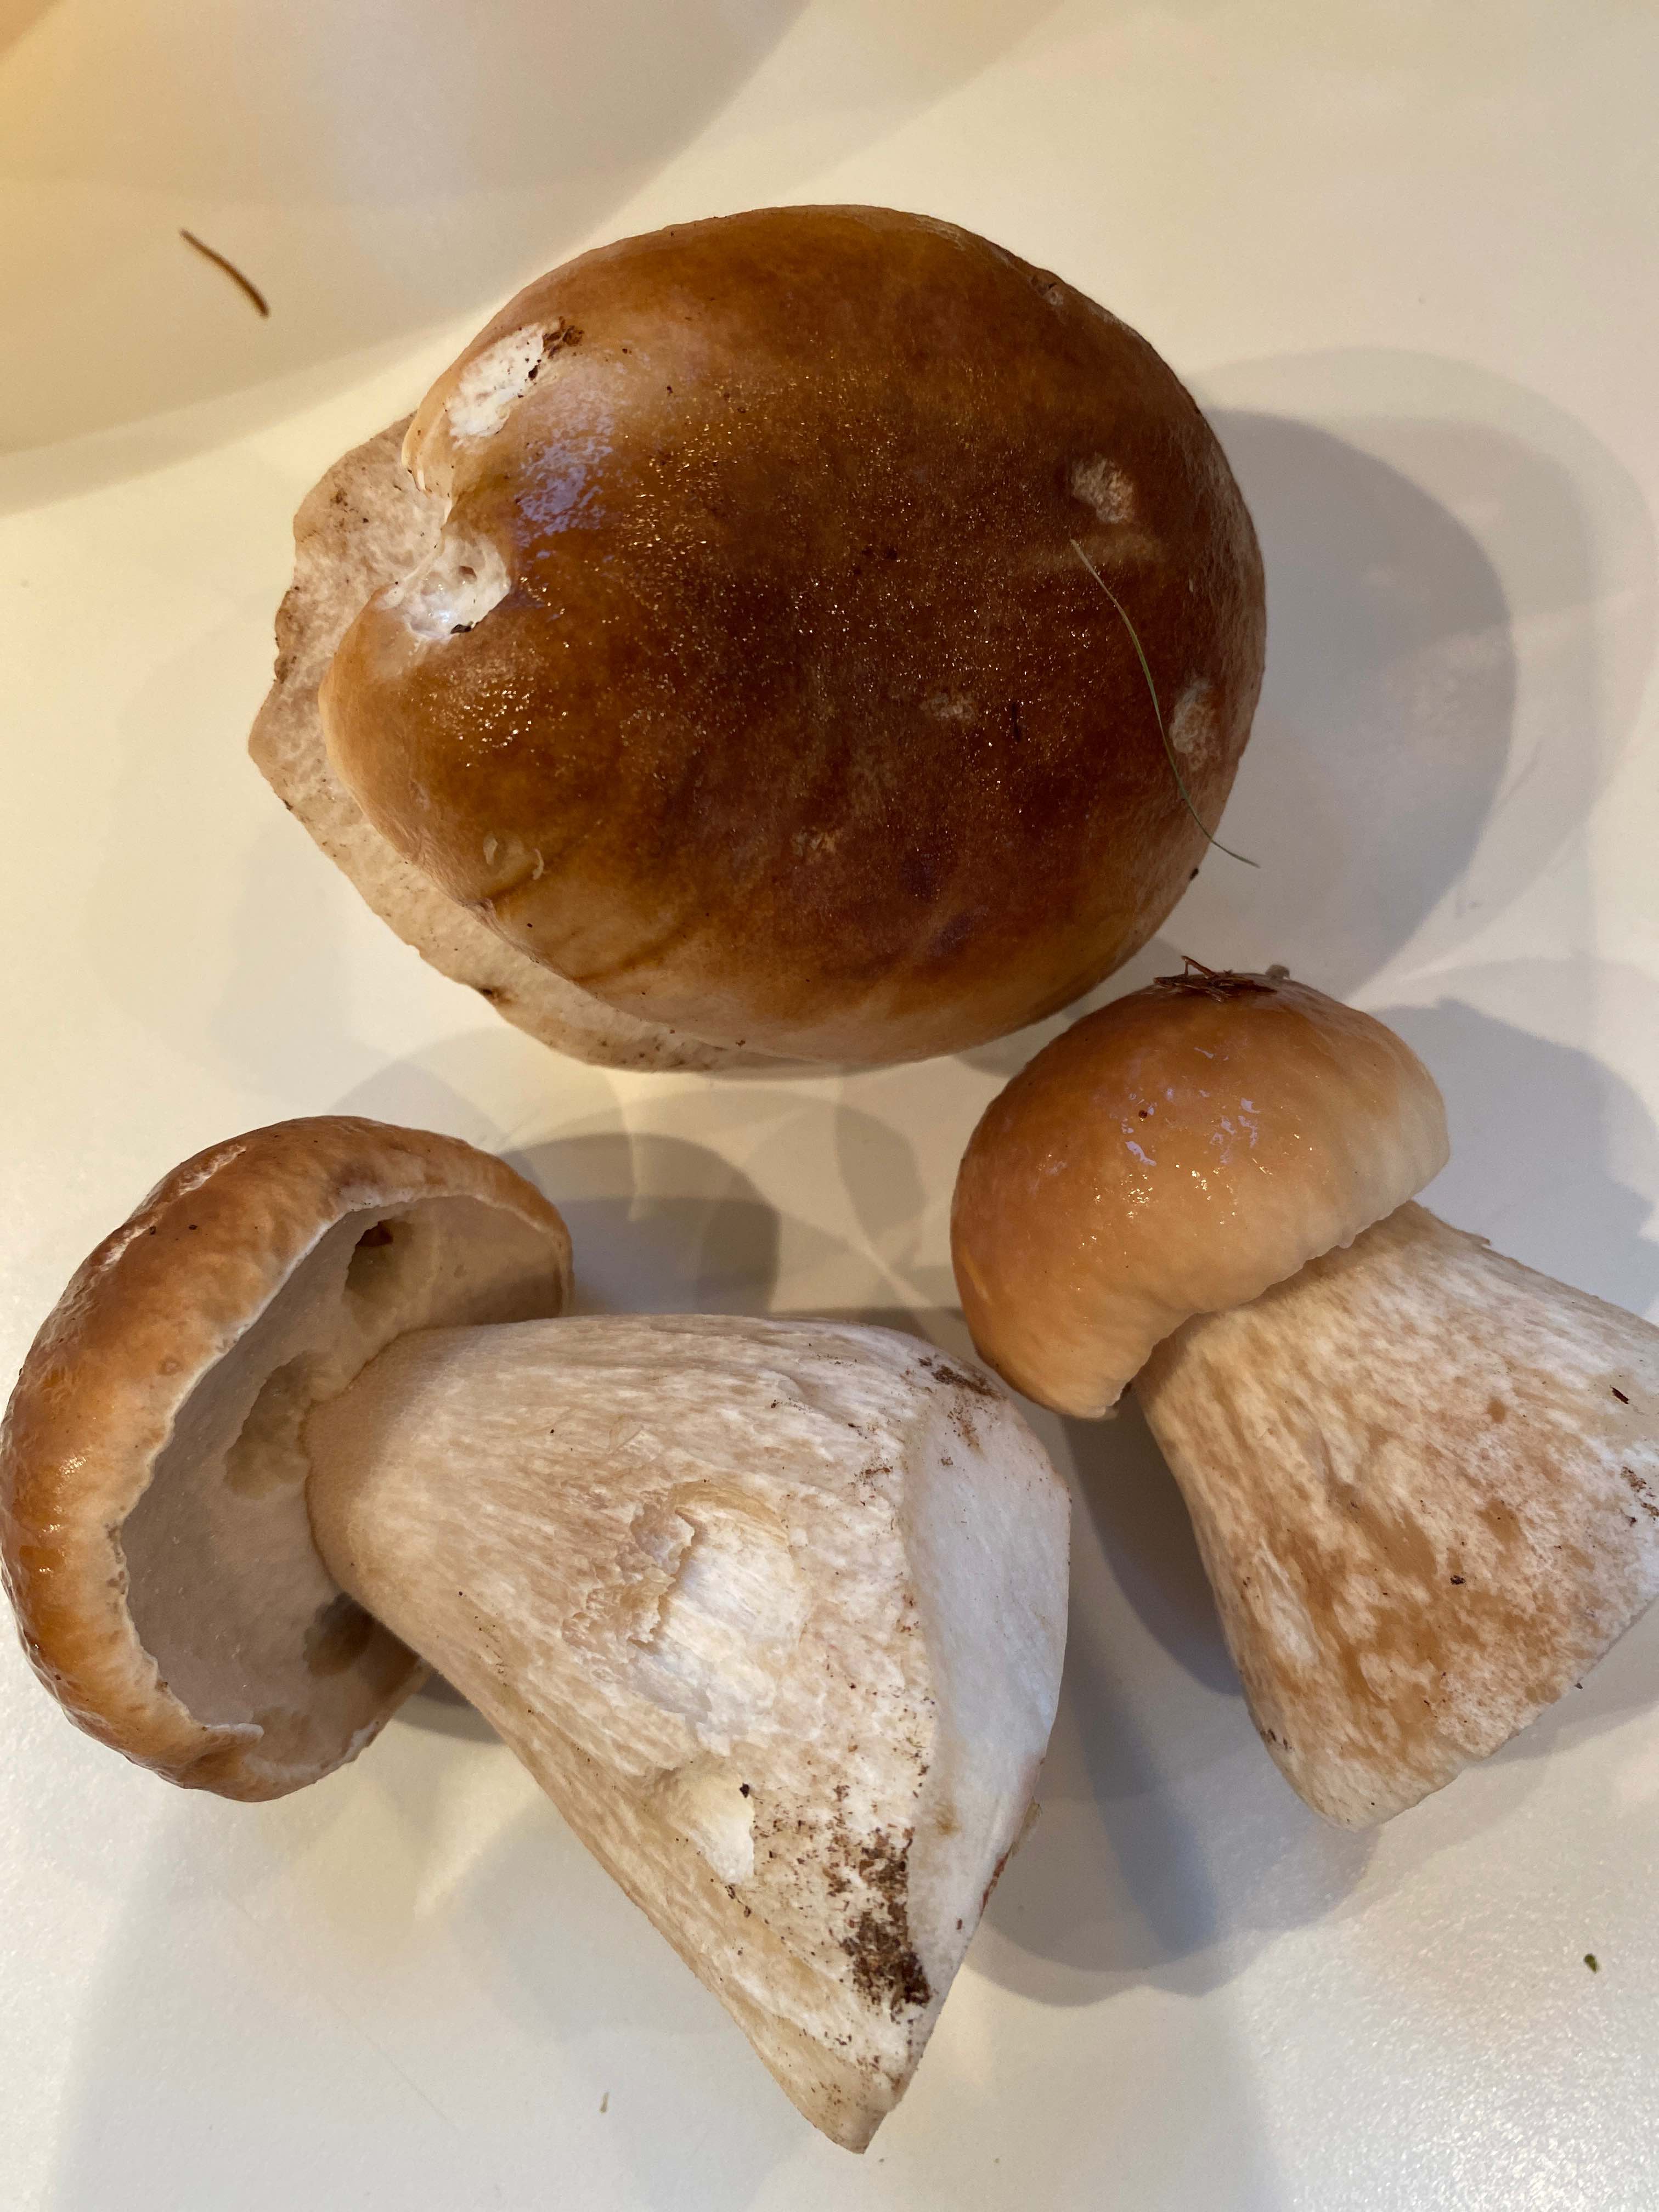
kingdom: Fungi
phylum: Basidiomycota
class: Agaricomycetes
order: Boletales
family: Boletaceae
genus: Boletus
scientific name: Boletus edulis
